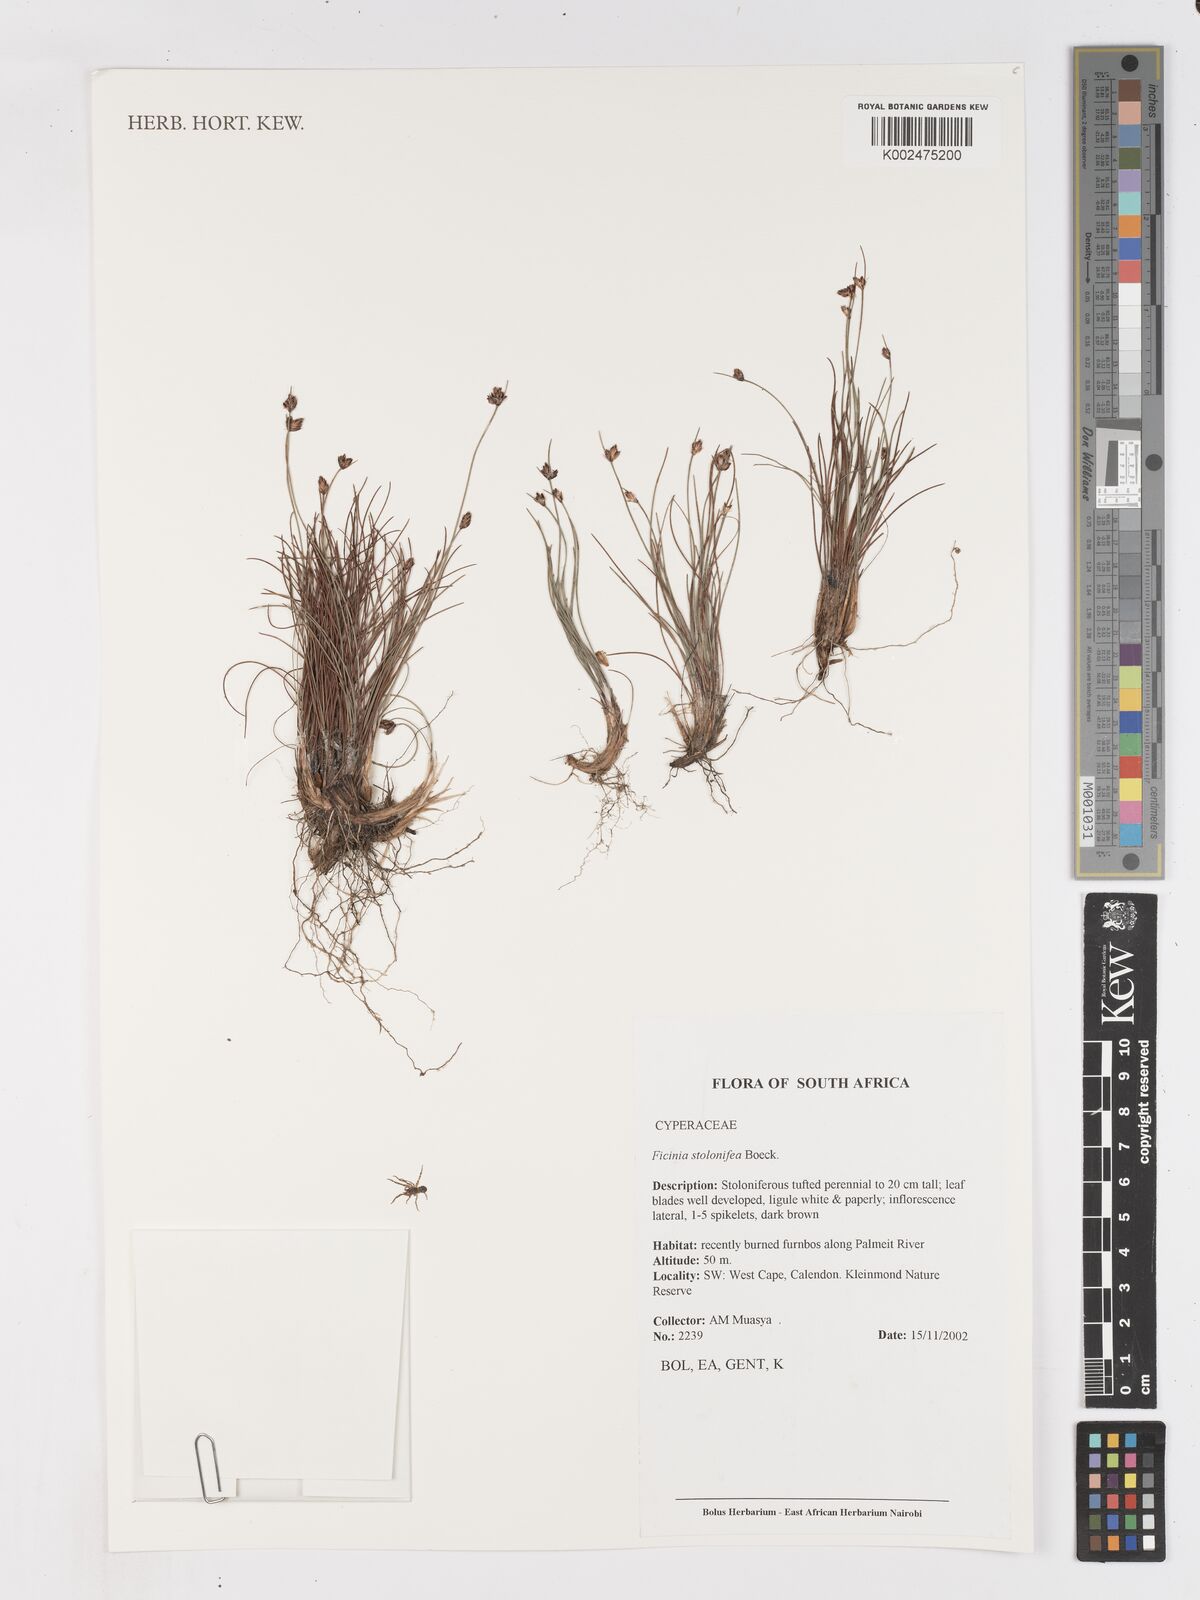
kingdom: Plantae
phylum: Tracheophyta
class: Liliopsida
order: Poales
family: Cyperaceae
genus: Ficinia
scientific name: Ficinia stolonifera
